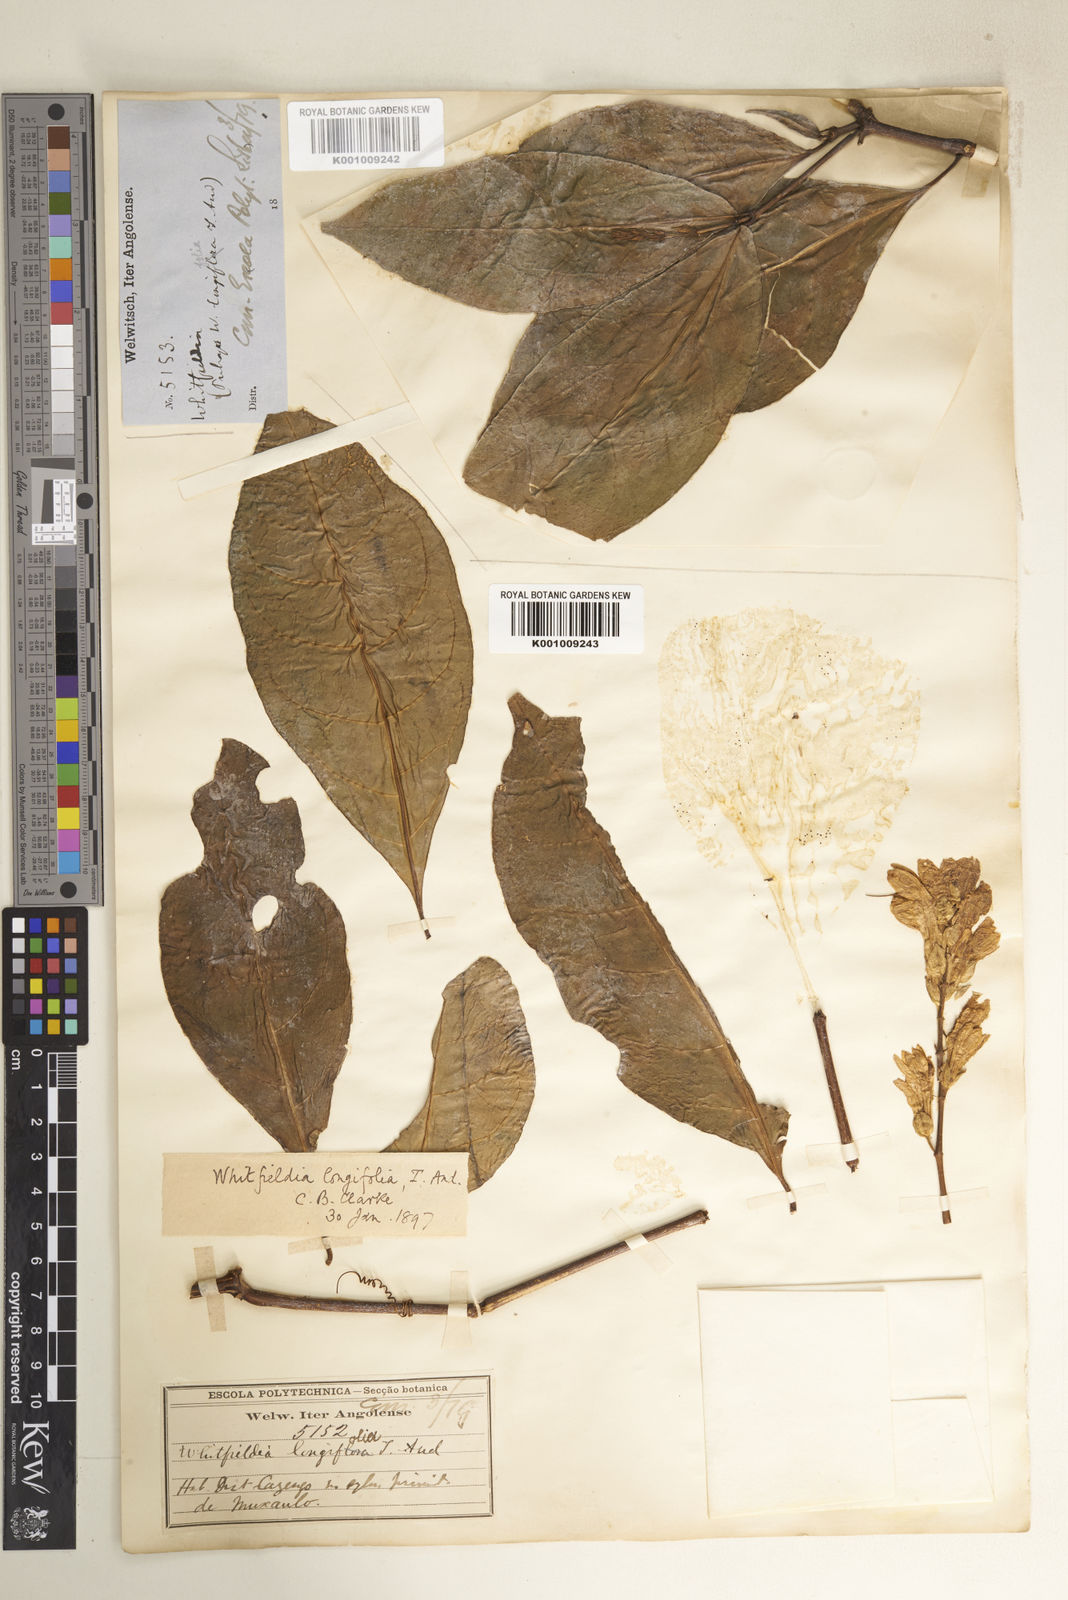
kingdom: Plantae
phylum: Tracheophyta
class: Magnoliopsida
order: Lamiales
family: Acanthaceae
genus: Whitfieldia
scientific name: Whitfieldia elongata
